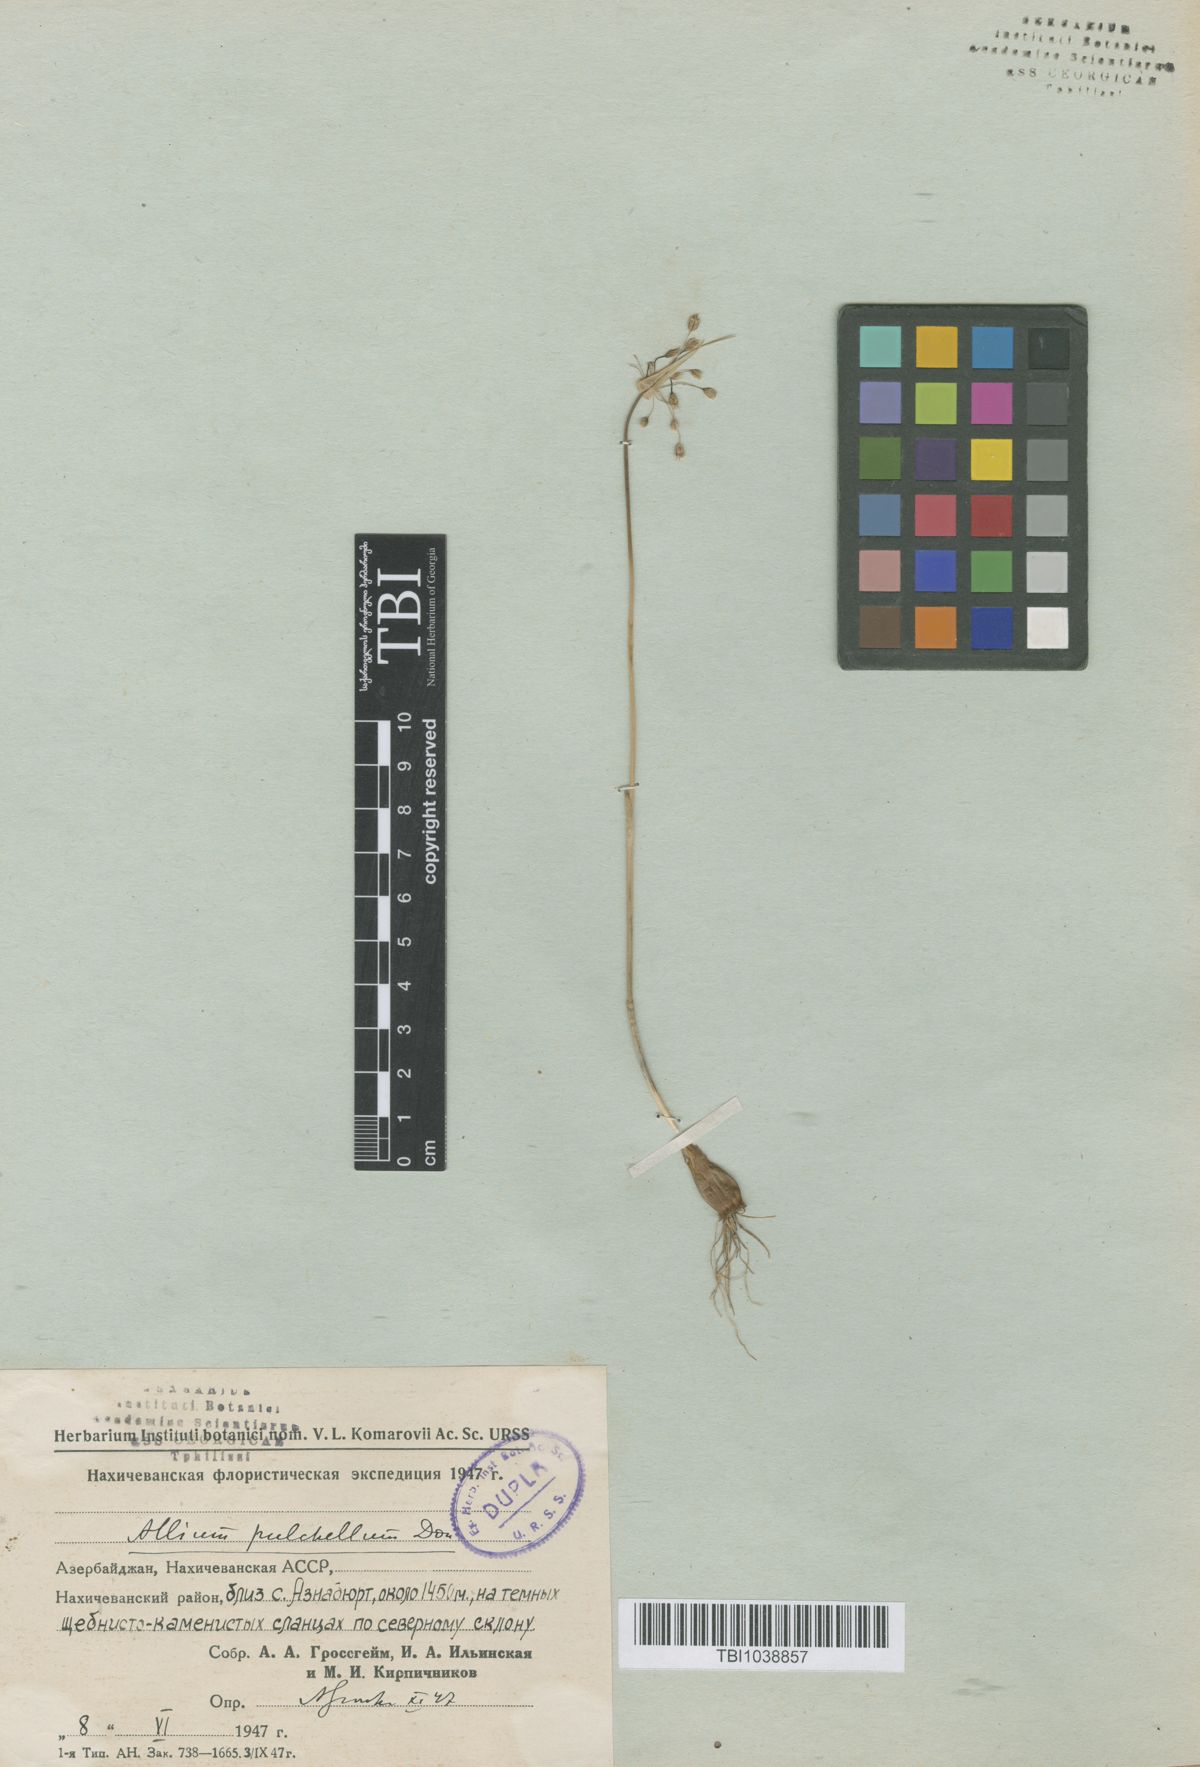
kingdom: Plantae
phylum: Tracheophyta
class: Liliopsida
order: Asparagales
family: Amaryllidaceae
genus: Allium
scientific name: Allium flavum
